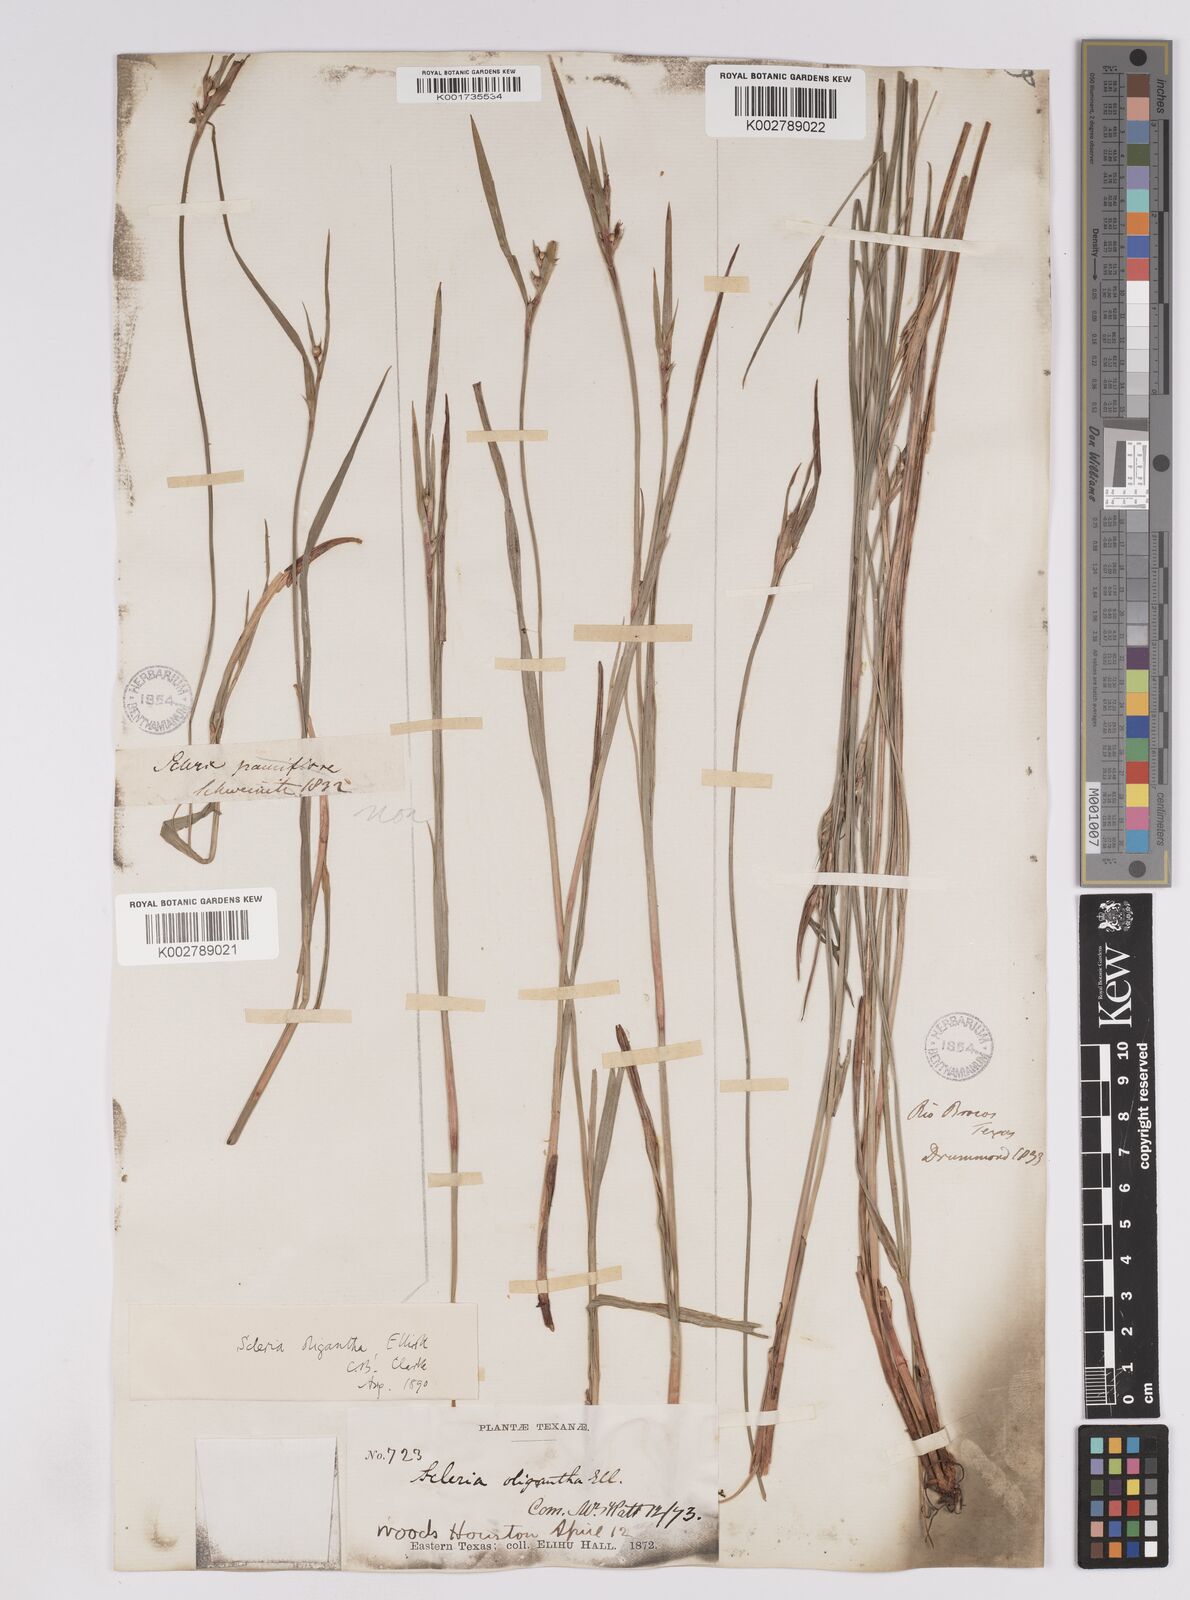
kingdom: Plantae
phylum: Tracheophyta
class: Liliopsida
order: Poales
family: Cyperaceae
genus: Scleria
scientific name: Scleria oligantha
